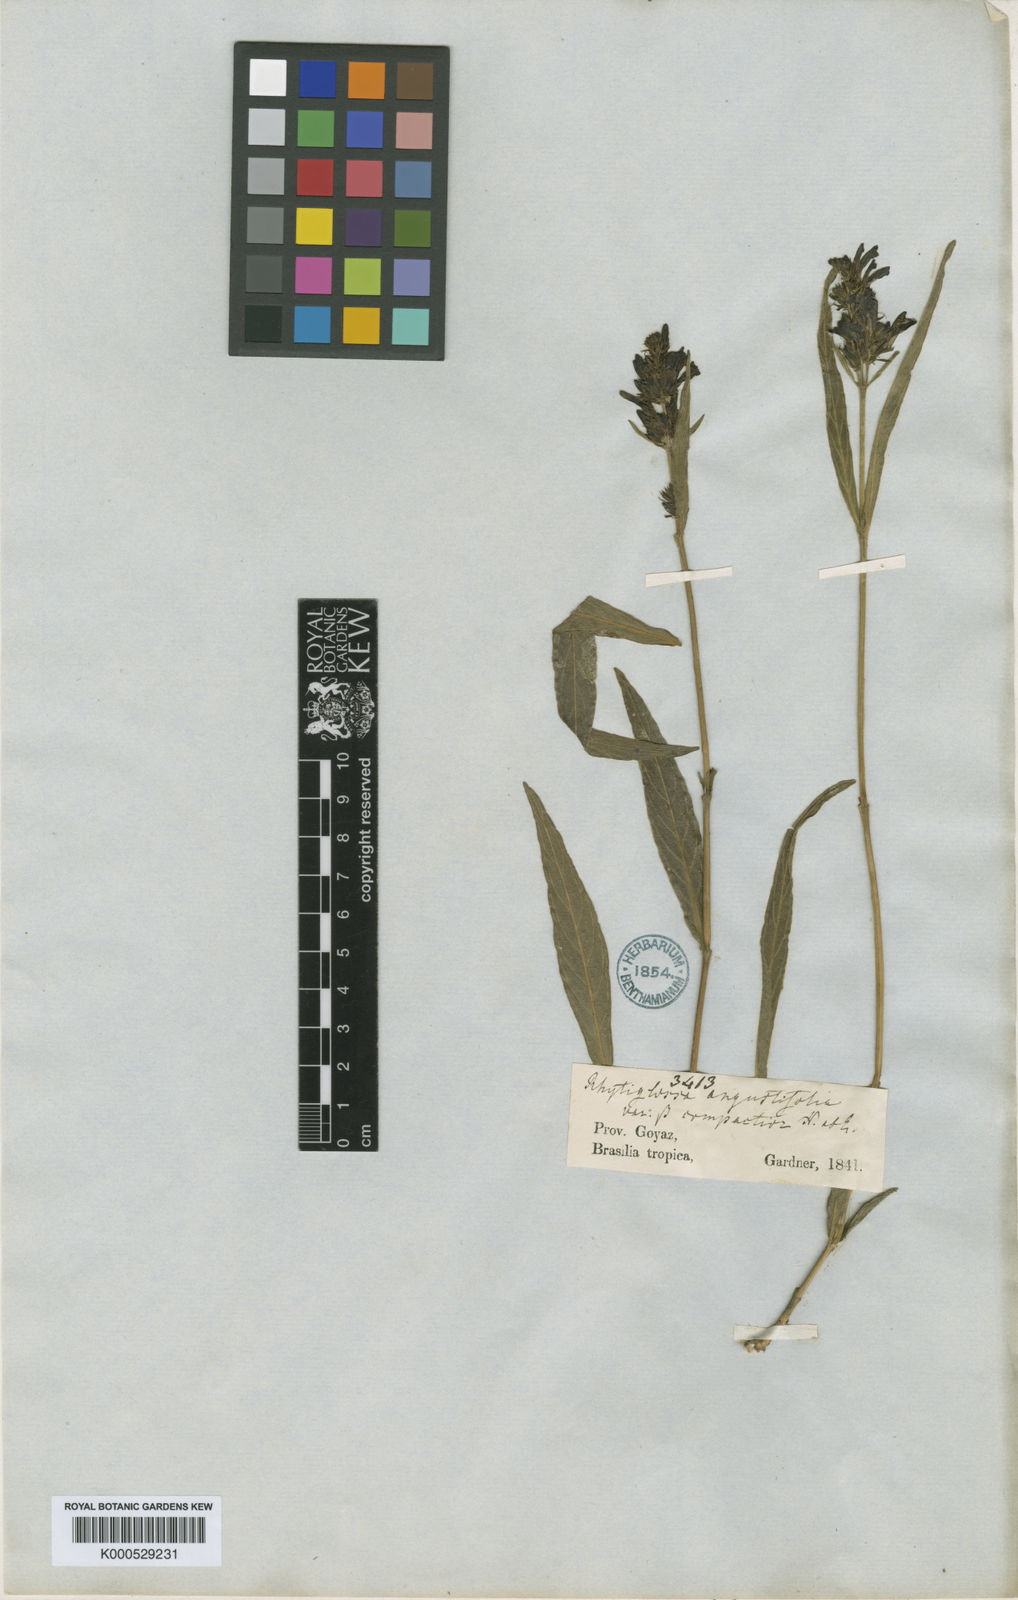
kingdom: Plantae
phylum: Tracheophyta
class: Magnoliopsida
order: Lamiales
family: Acanthaceae
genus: Dianthera
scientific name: Dianthera angustifolia
